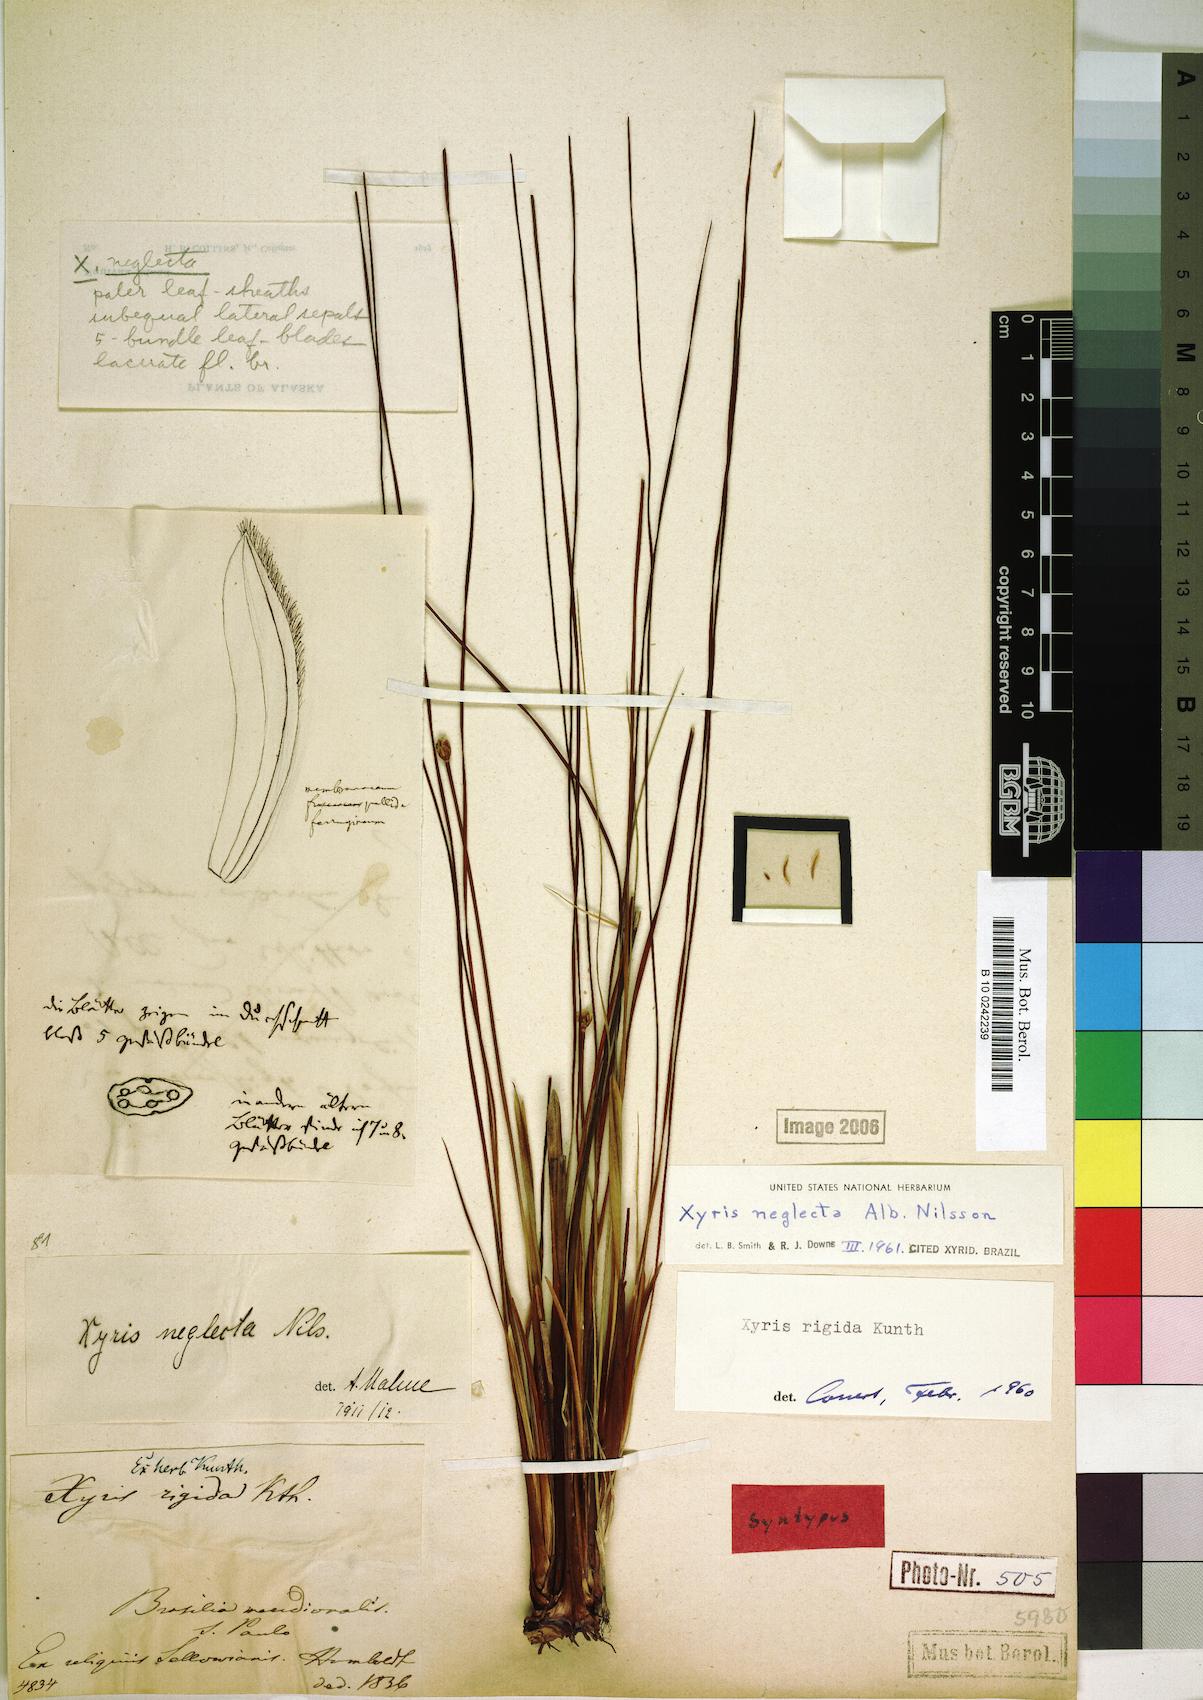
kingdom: Plantae
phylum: Tracheophyta
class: Liliopsida
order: Poales
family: Xyridaceae
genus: Xyris
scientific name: Xyris neglecta
